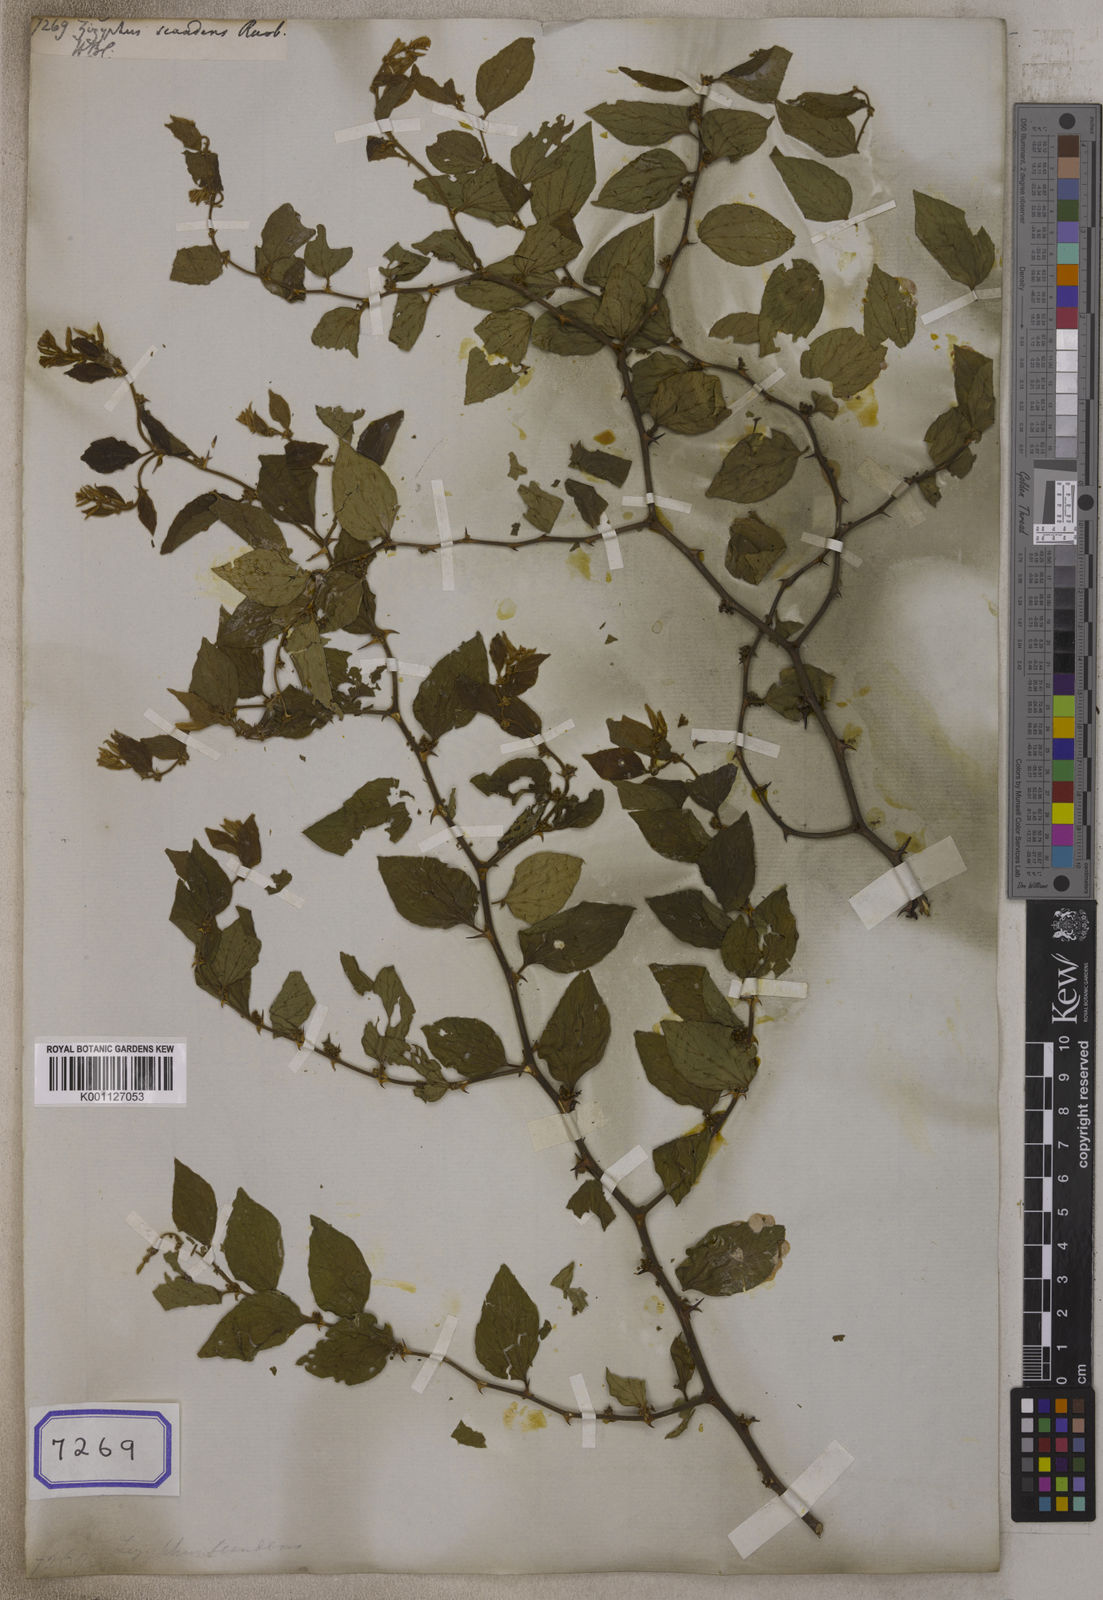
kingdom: Plantae
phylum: Tracheophyta
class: Magnoliopsida
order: Rosales
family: Rhamnaceae
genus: Ziziphus
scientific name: Ziziphus oenopolia
